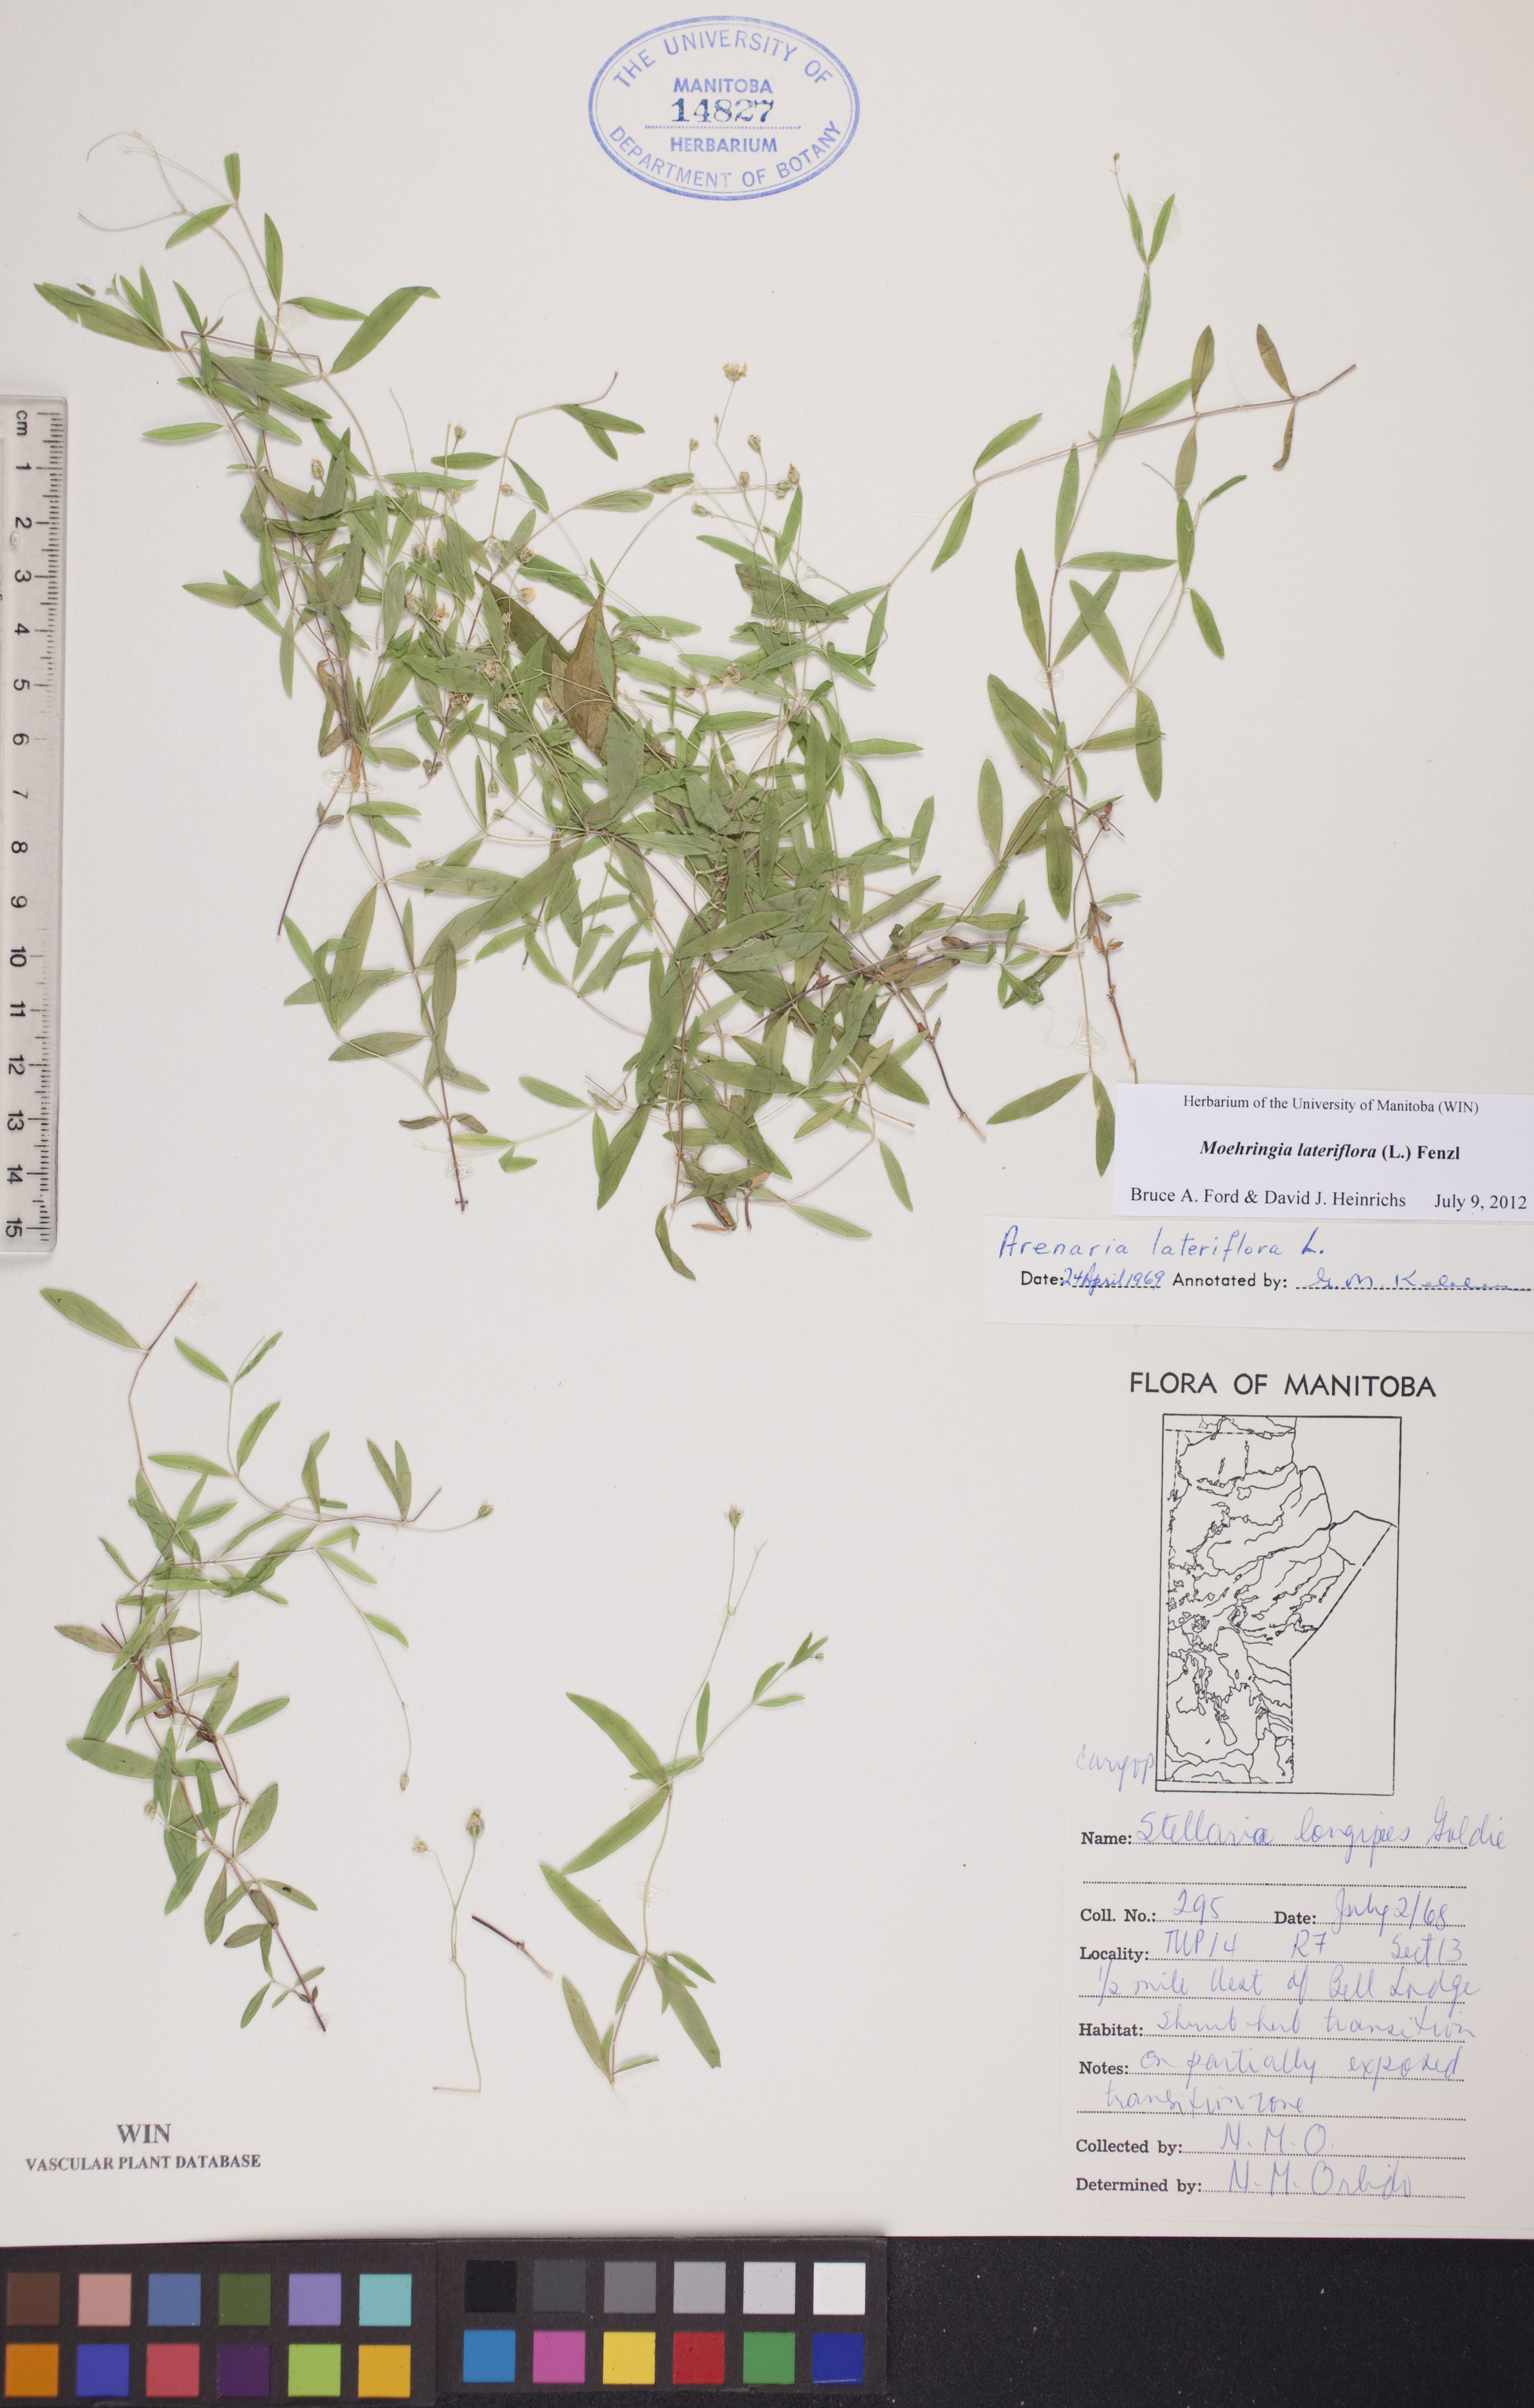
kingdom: Plantae
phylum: Tracheophyta
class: Magnoliopsida
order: Caryophyllales
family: Caryophyllaceae
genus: Moehringia
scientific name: Moehringia lateriflora
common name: Blunt-leaved sandwort
